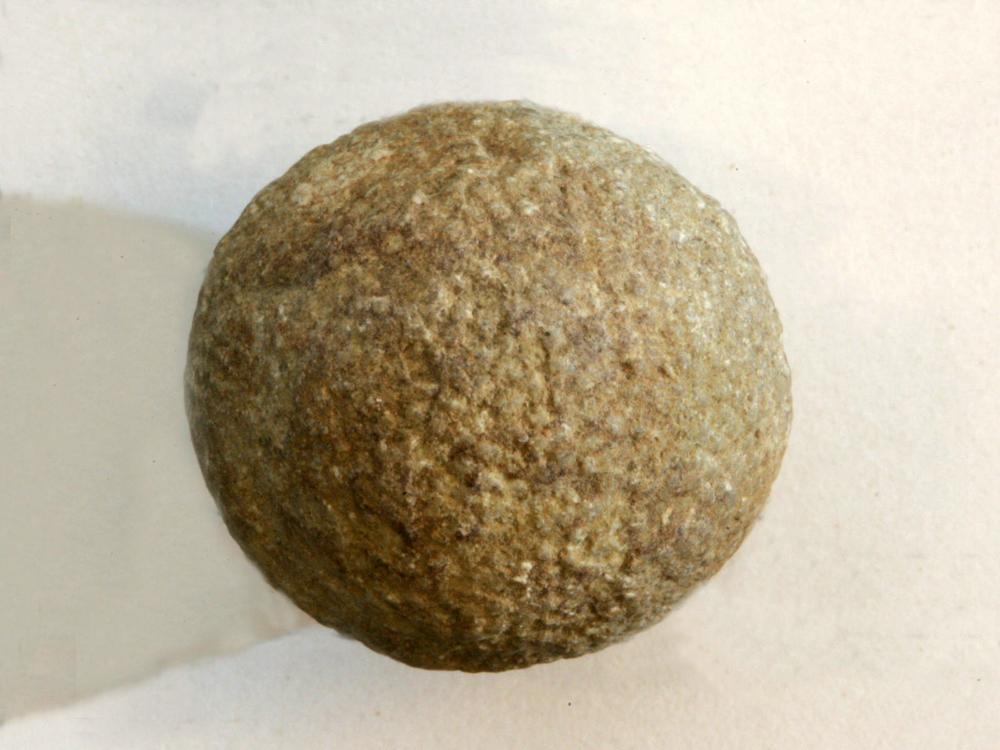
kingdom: Animalia
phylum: Echinodermata
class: Crinoidea
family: Cyclocrinidae
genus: Cyclocrinus
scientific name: Cyclocrinus
